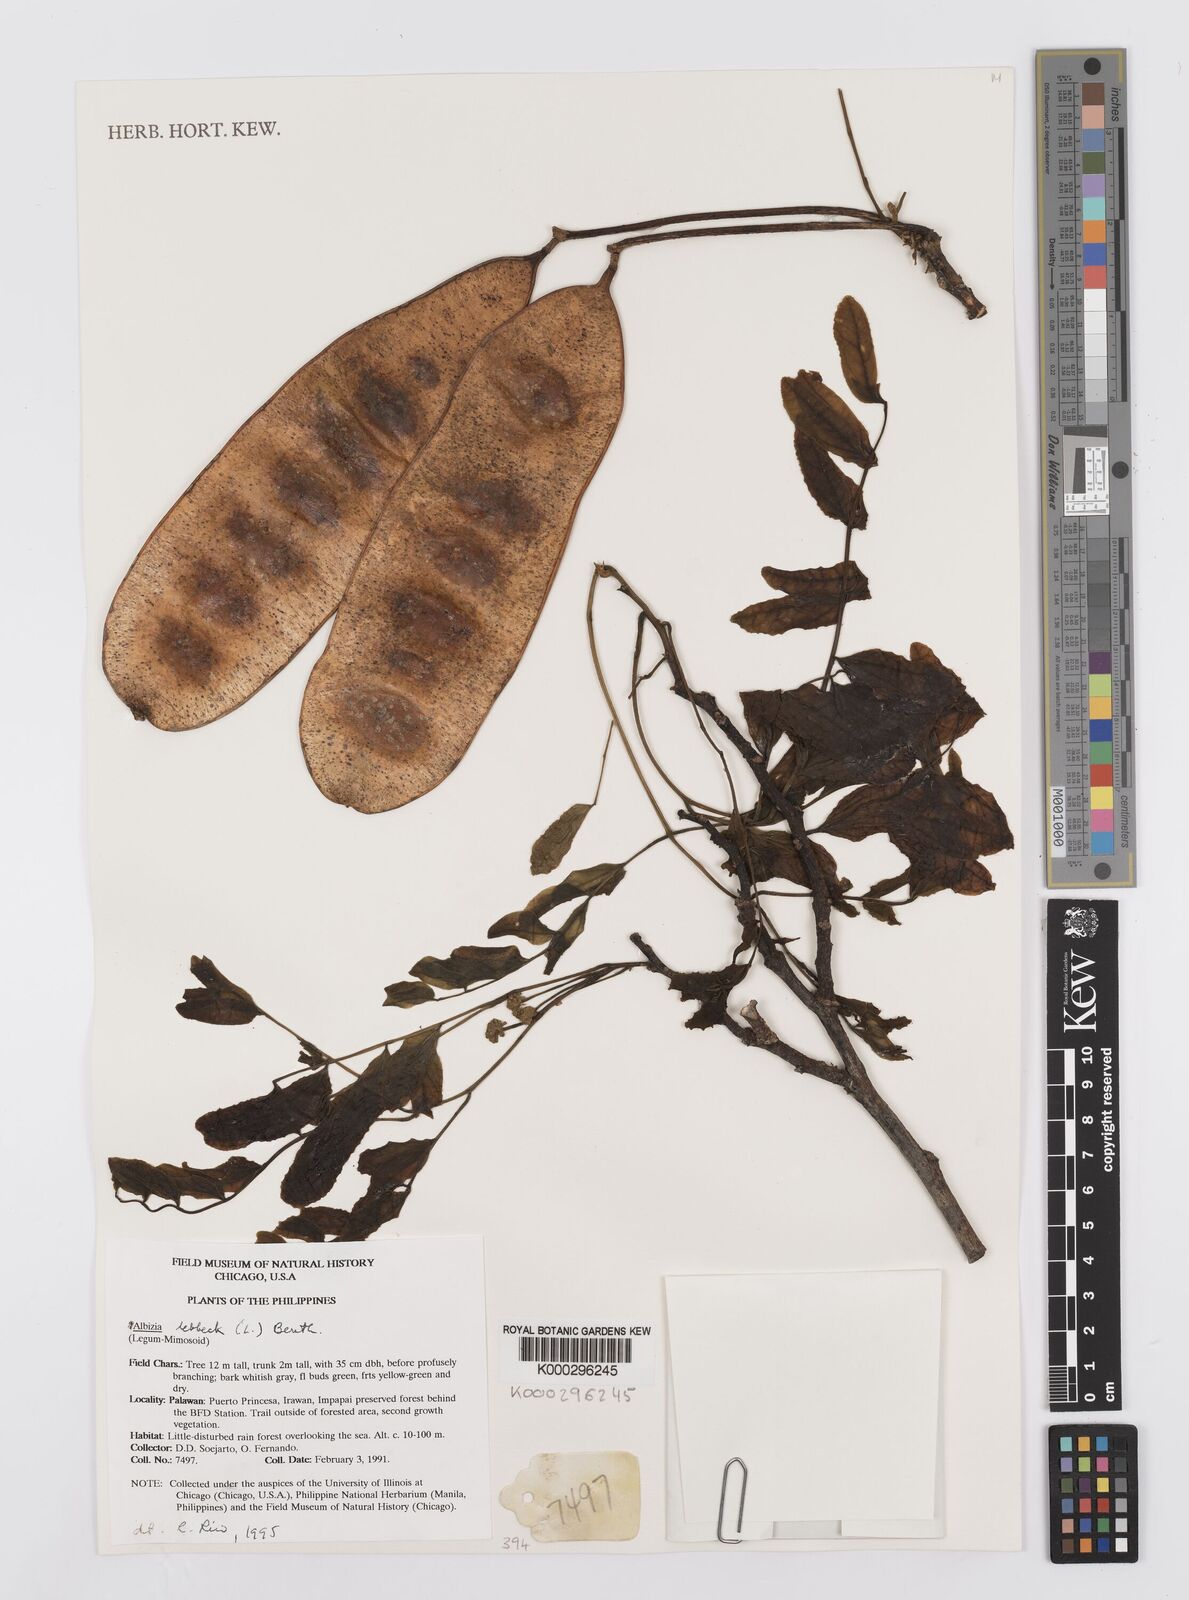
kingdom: Plantae
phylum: Tracheophyta
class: Magnoliopsida
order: Fabales
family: Fabaceae
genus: Albizia
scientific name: Albizia lebbeck
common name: Woman's tongue
